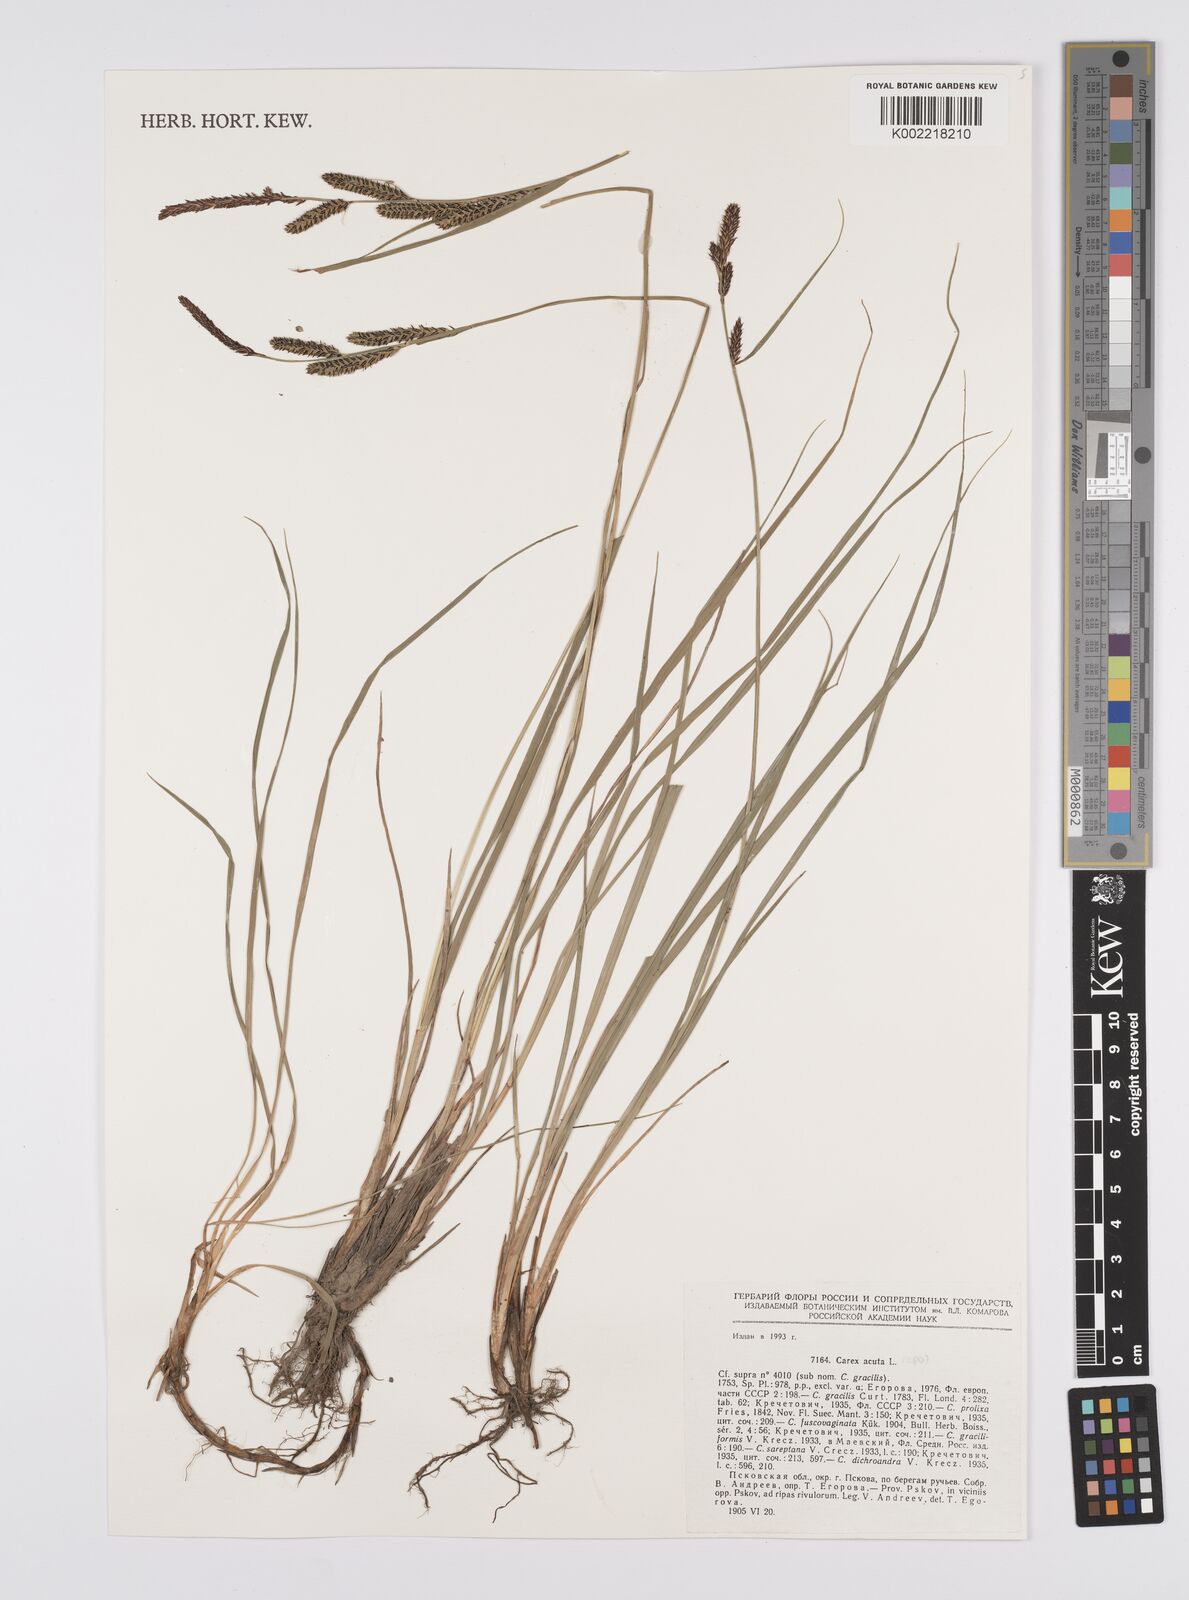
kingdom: Plantae
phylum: Tracheophyta
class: Liliopsida
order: Poales
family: Cyperaceae
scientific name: Cyperaceae
